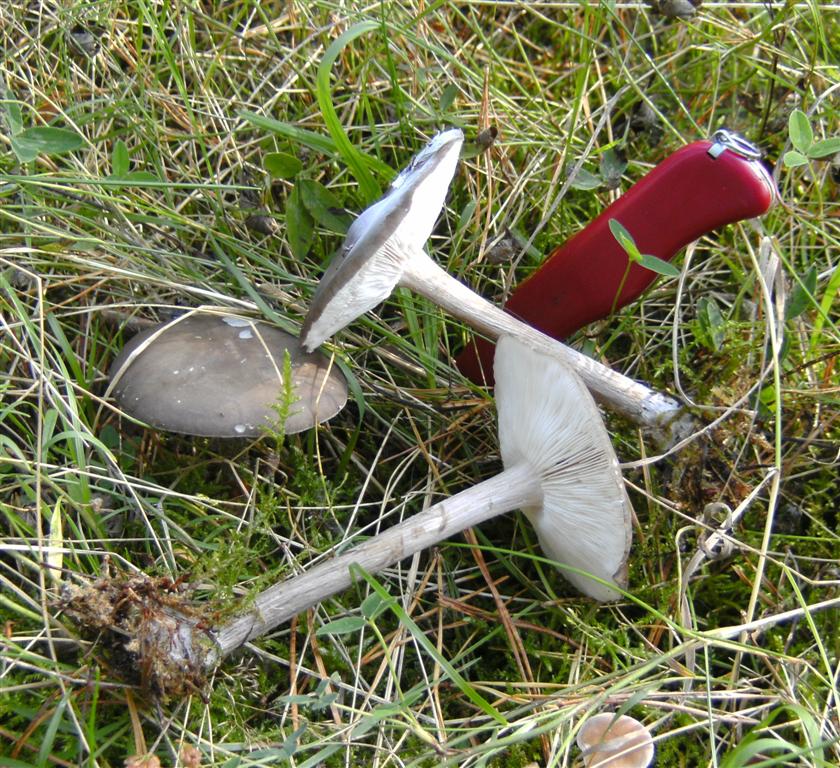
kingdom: Fungi
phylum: Basidiomycota
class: Agaricomycetes
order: Agaricales
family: Tricholomataceae
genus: Melanoleuca
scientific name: Melanoleuca polioleuca
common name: hvidbladet munkehat
